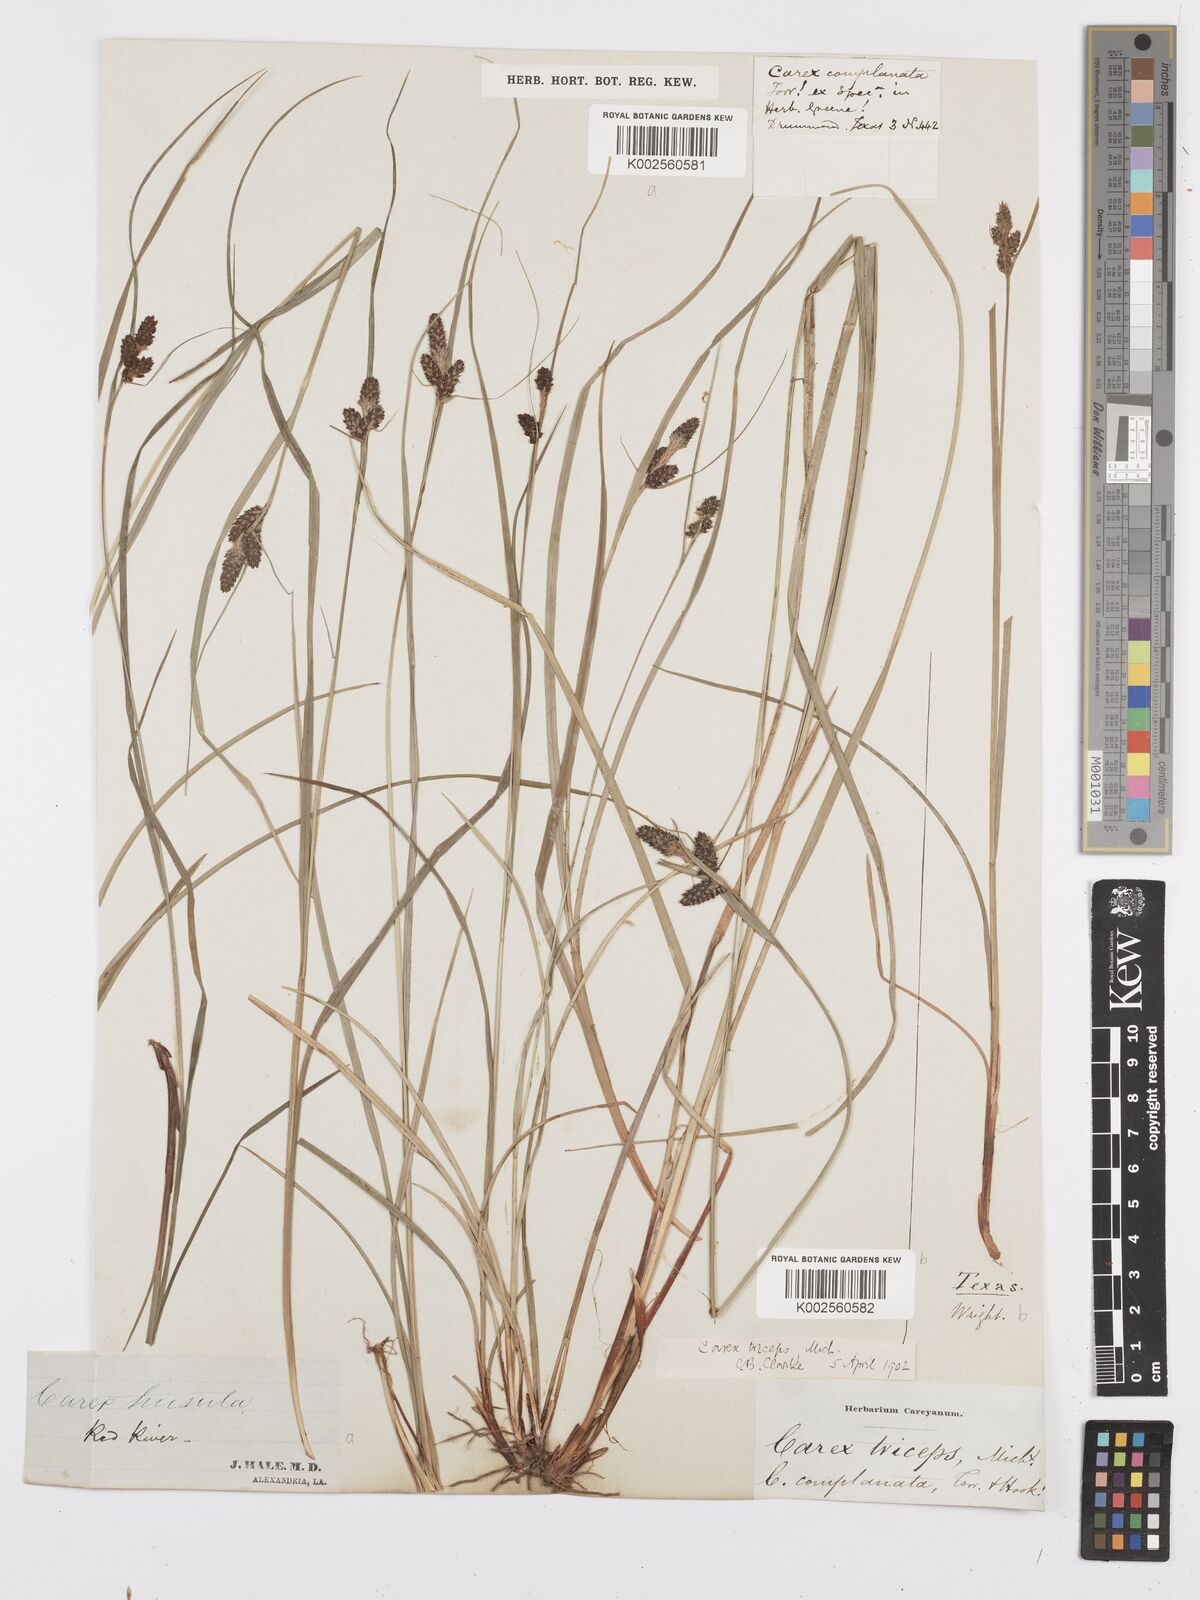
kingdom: Plantae
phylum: Tracheophyta
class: Liliopsida
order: Poales
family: Cyperaceae
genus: Carex
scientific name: Carex complanata
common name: Hirsute sedge
